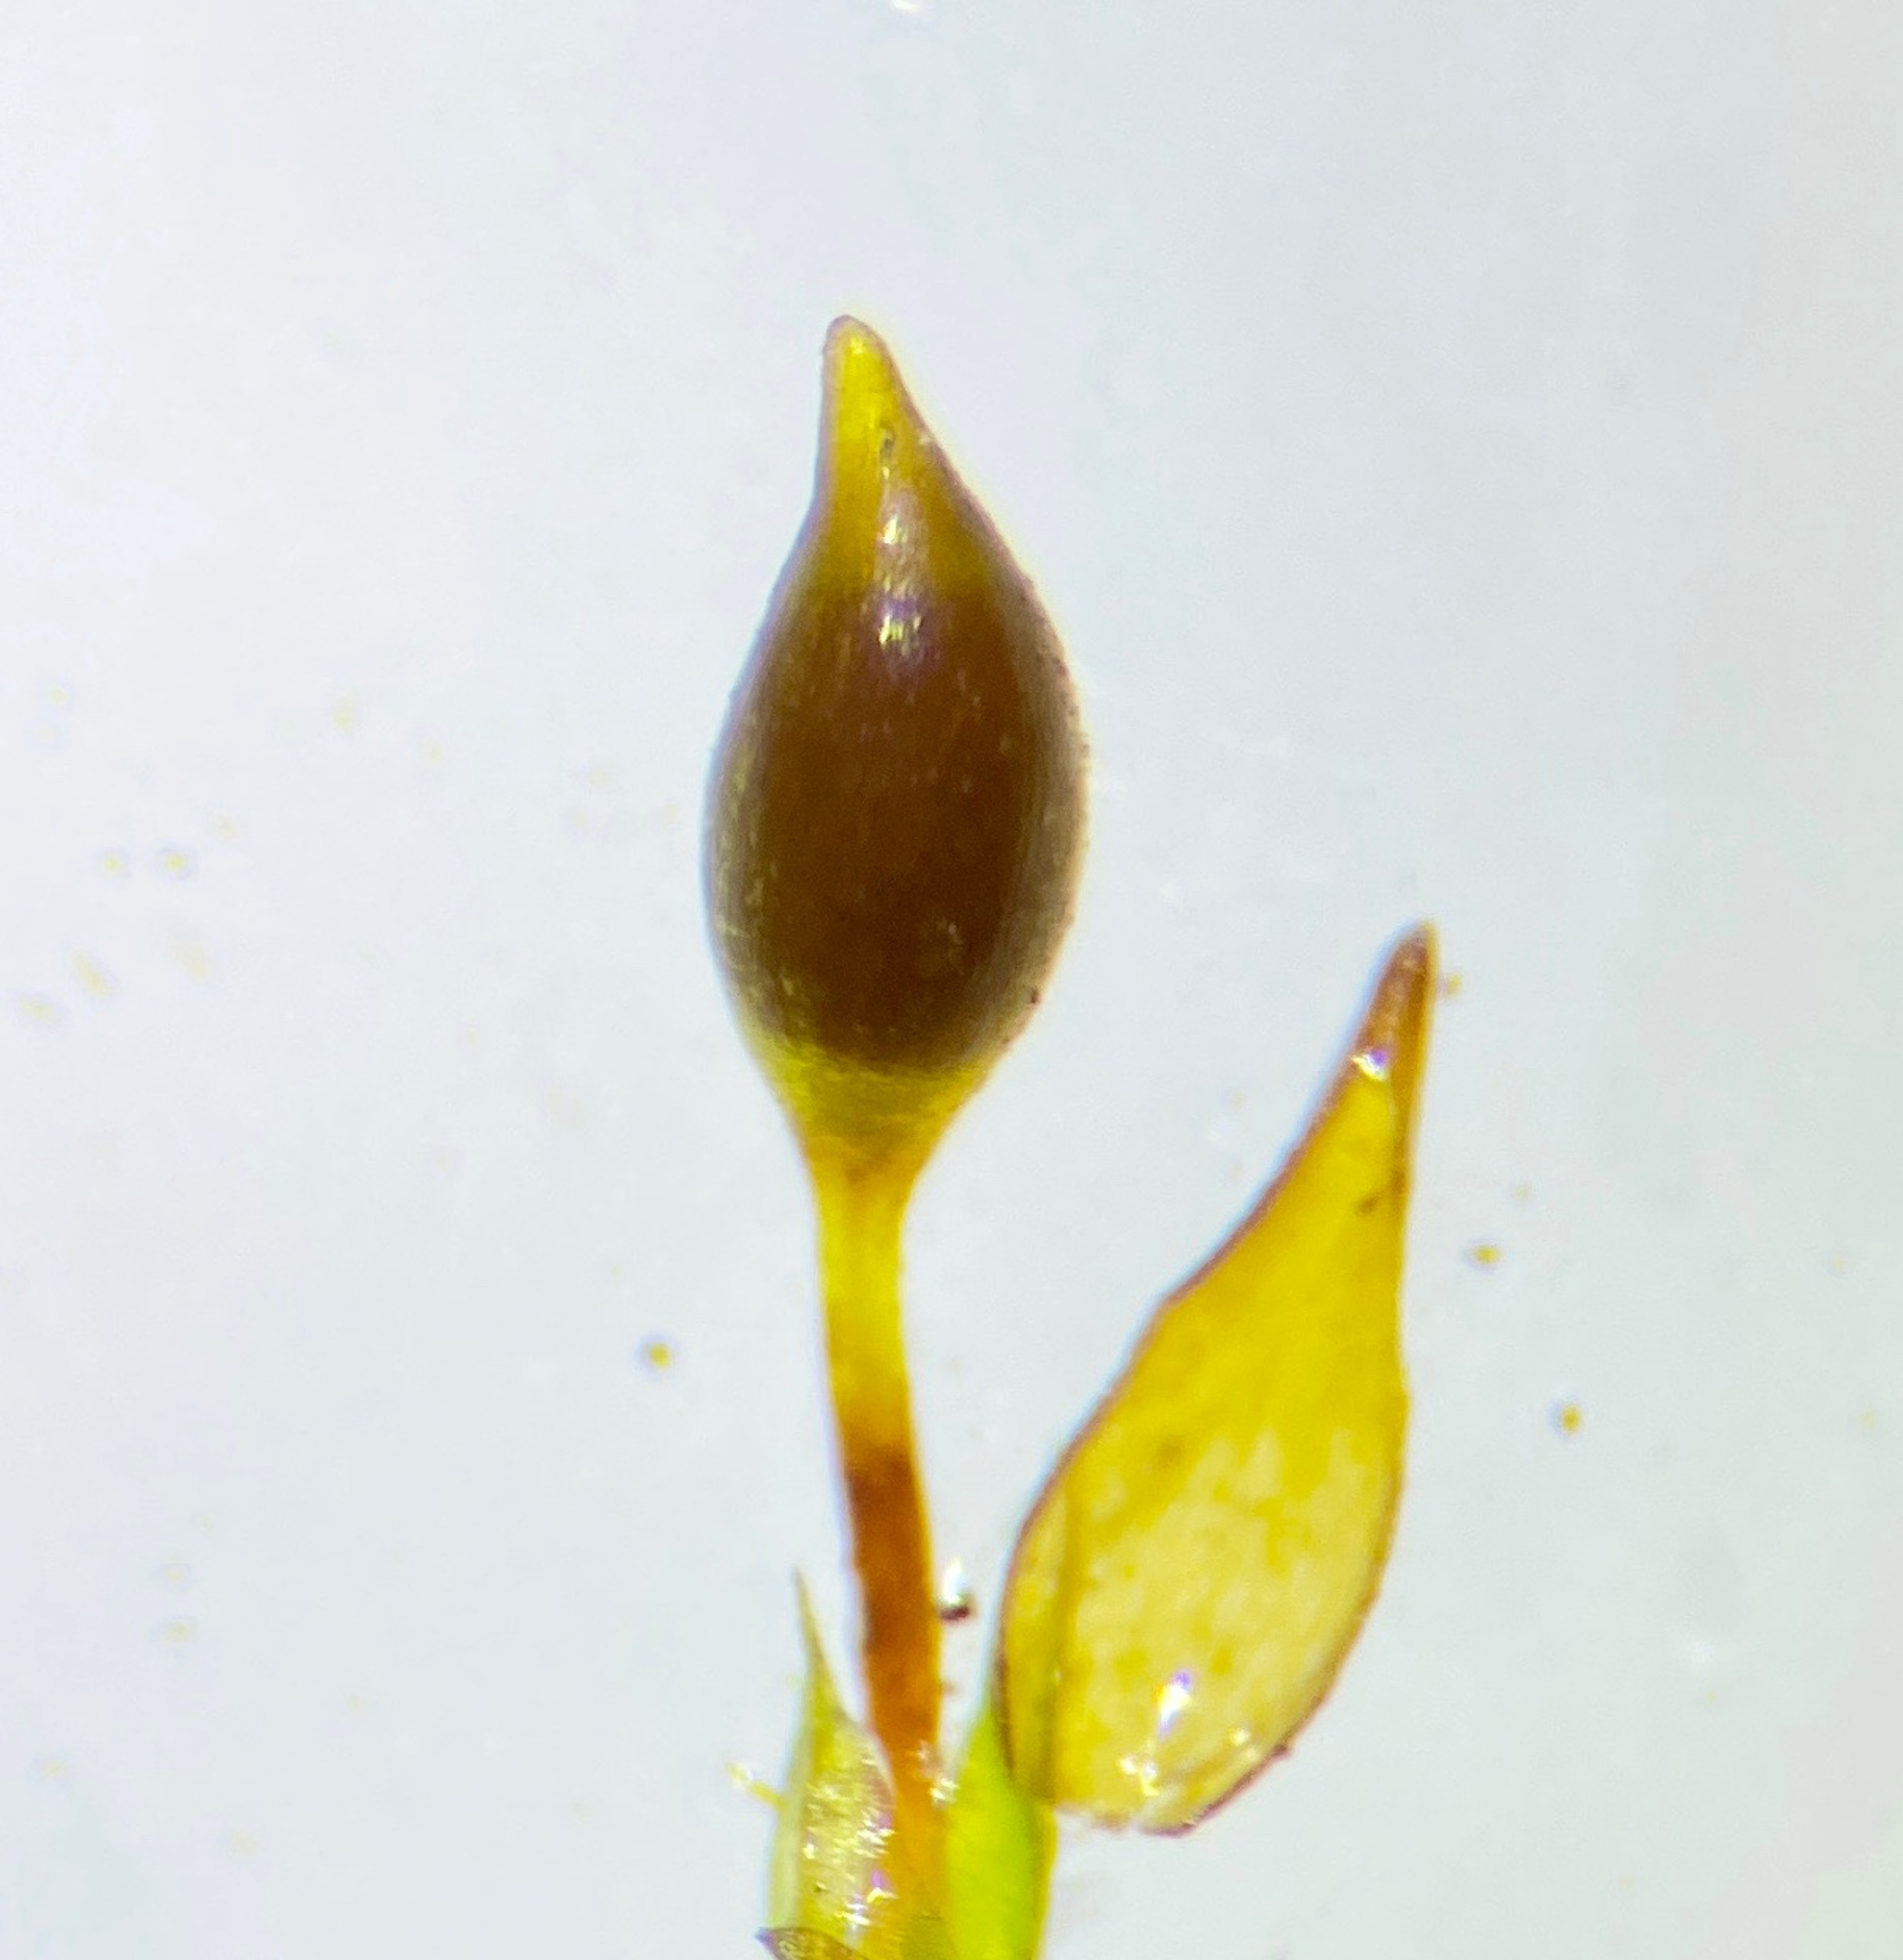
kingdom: Plantae
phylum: Bryophyta
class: Bryopsida
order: Pottiales
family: Pottiaceae
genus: Tortula
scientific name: Tortula protobryoides
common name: Lukket bægermos
